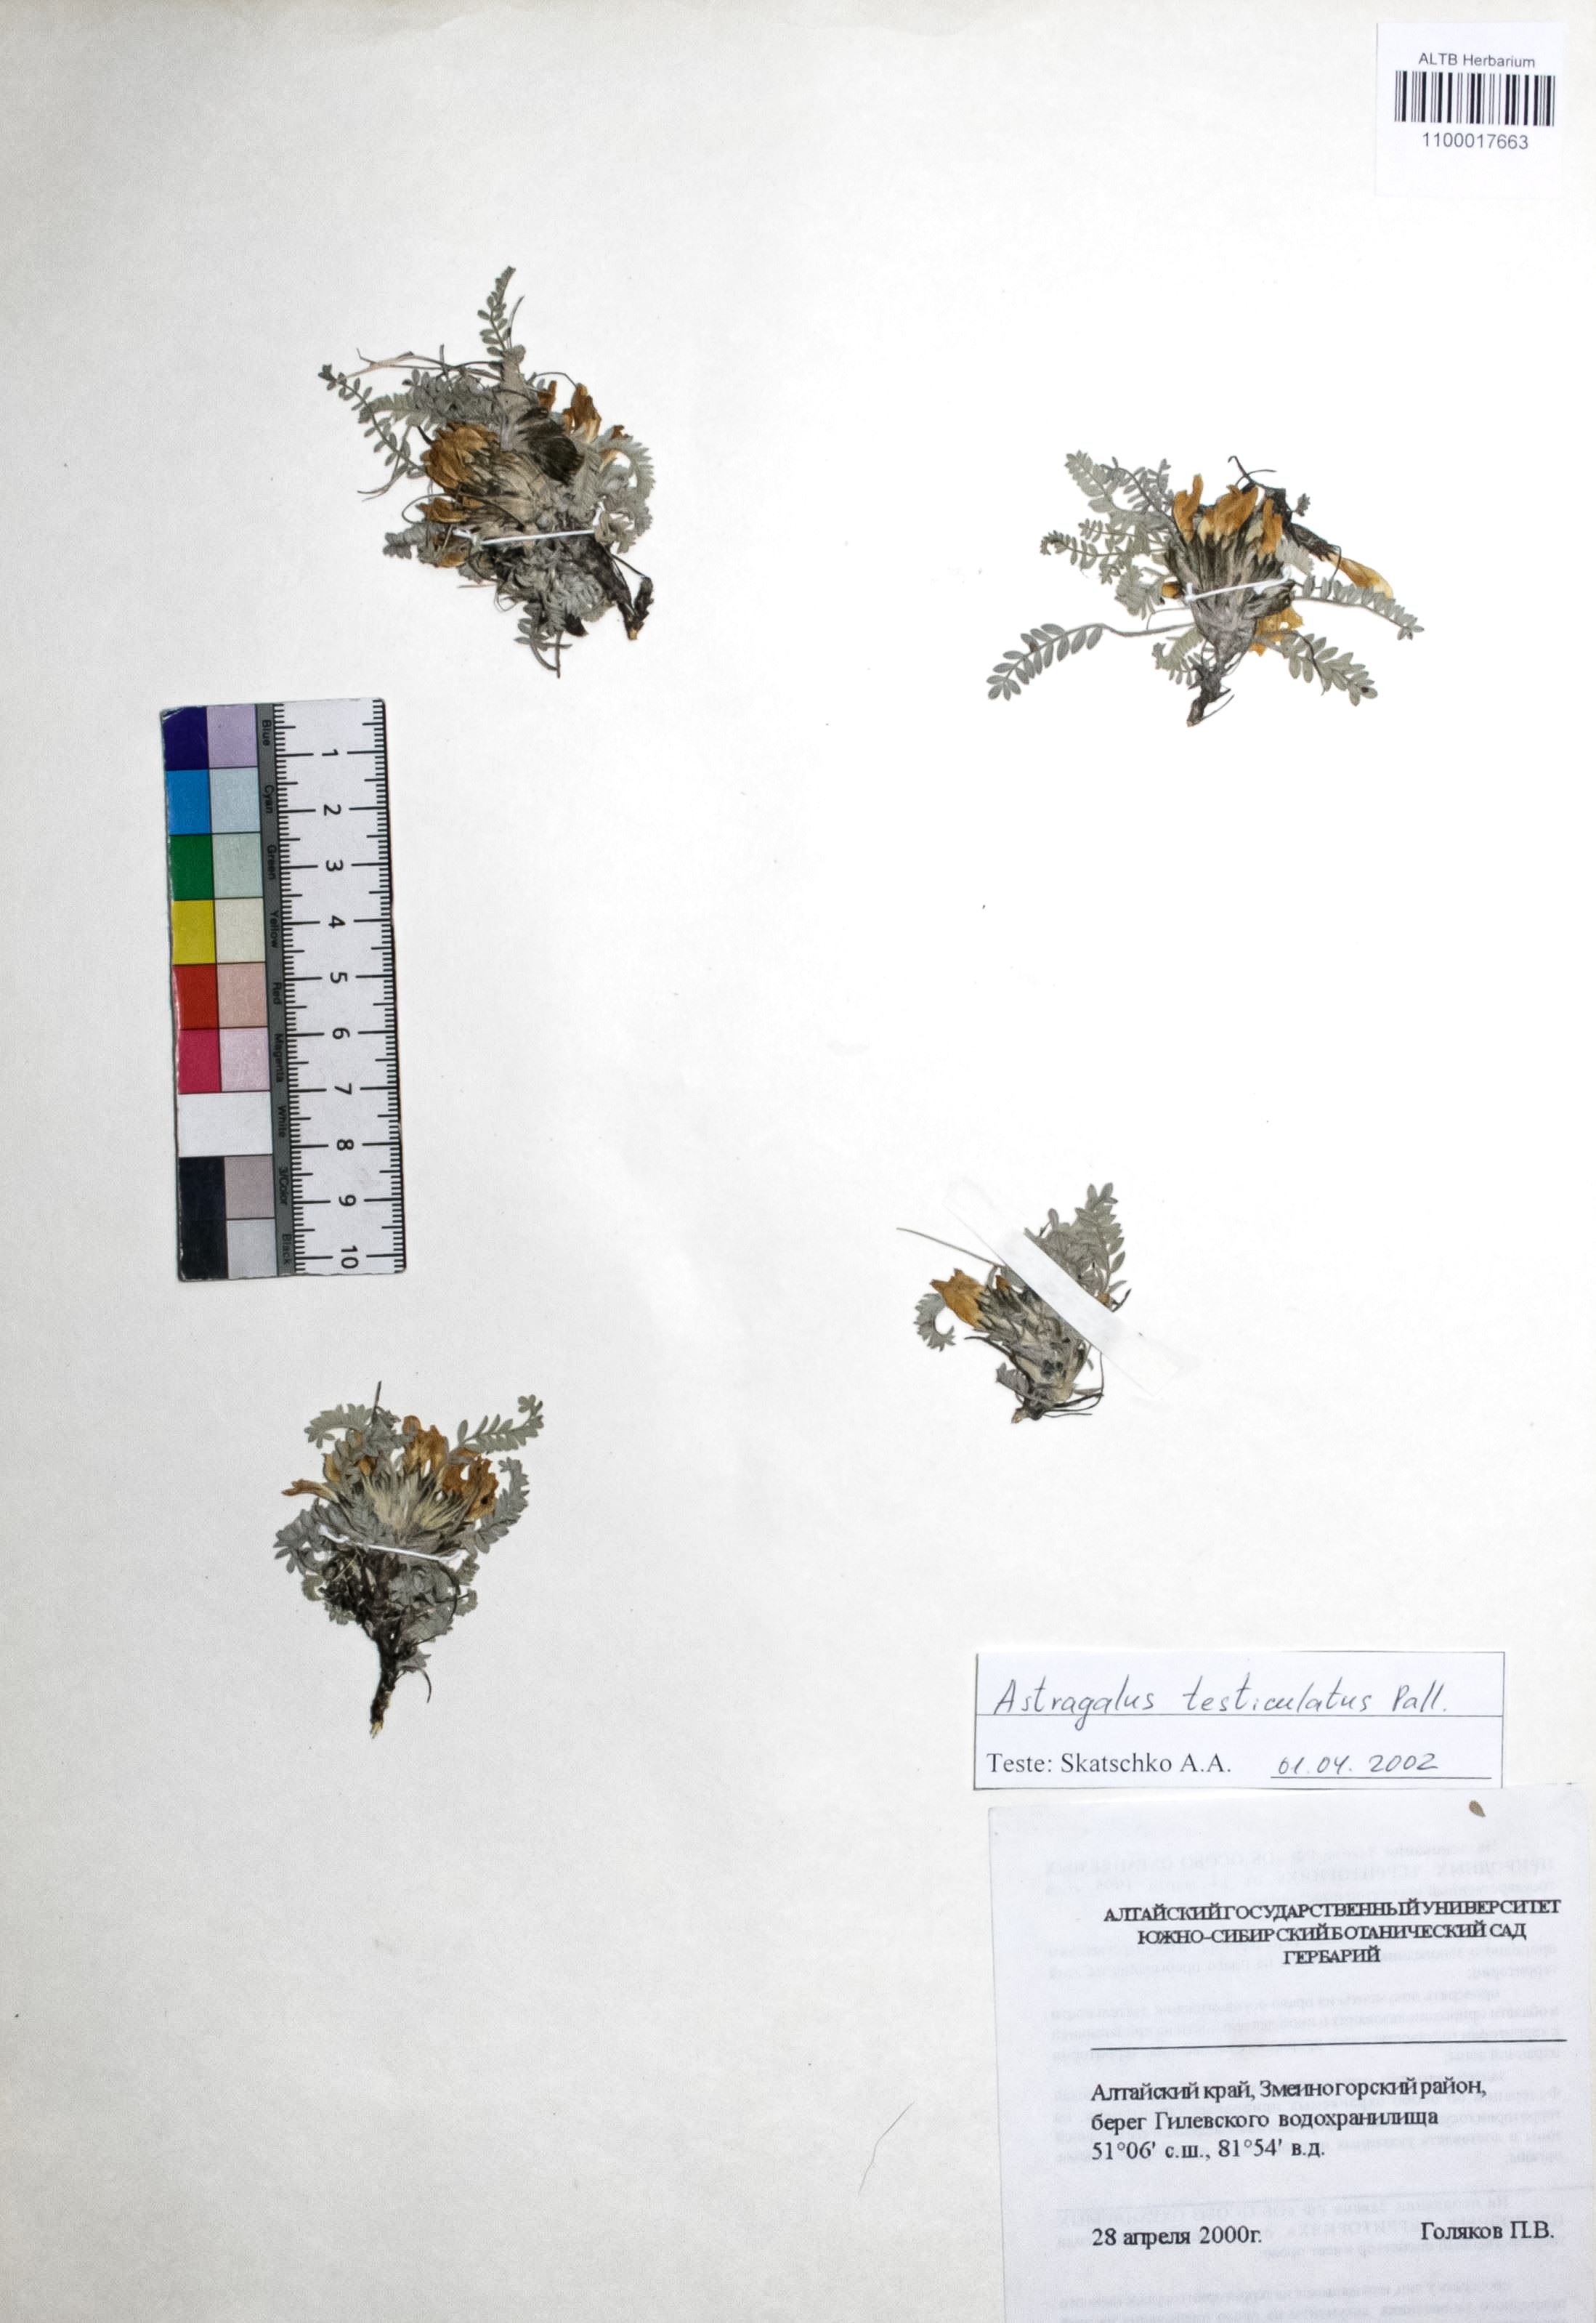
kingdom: Plantae
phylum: Tracheophyta
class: Magnoliopsida
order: Fabales
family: Fabaceae
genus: Astragalus
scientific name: Astragalus testiculatus
